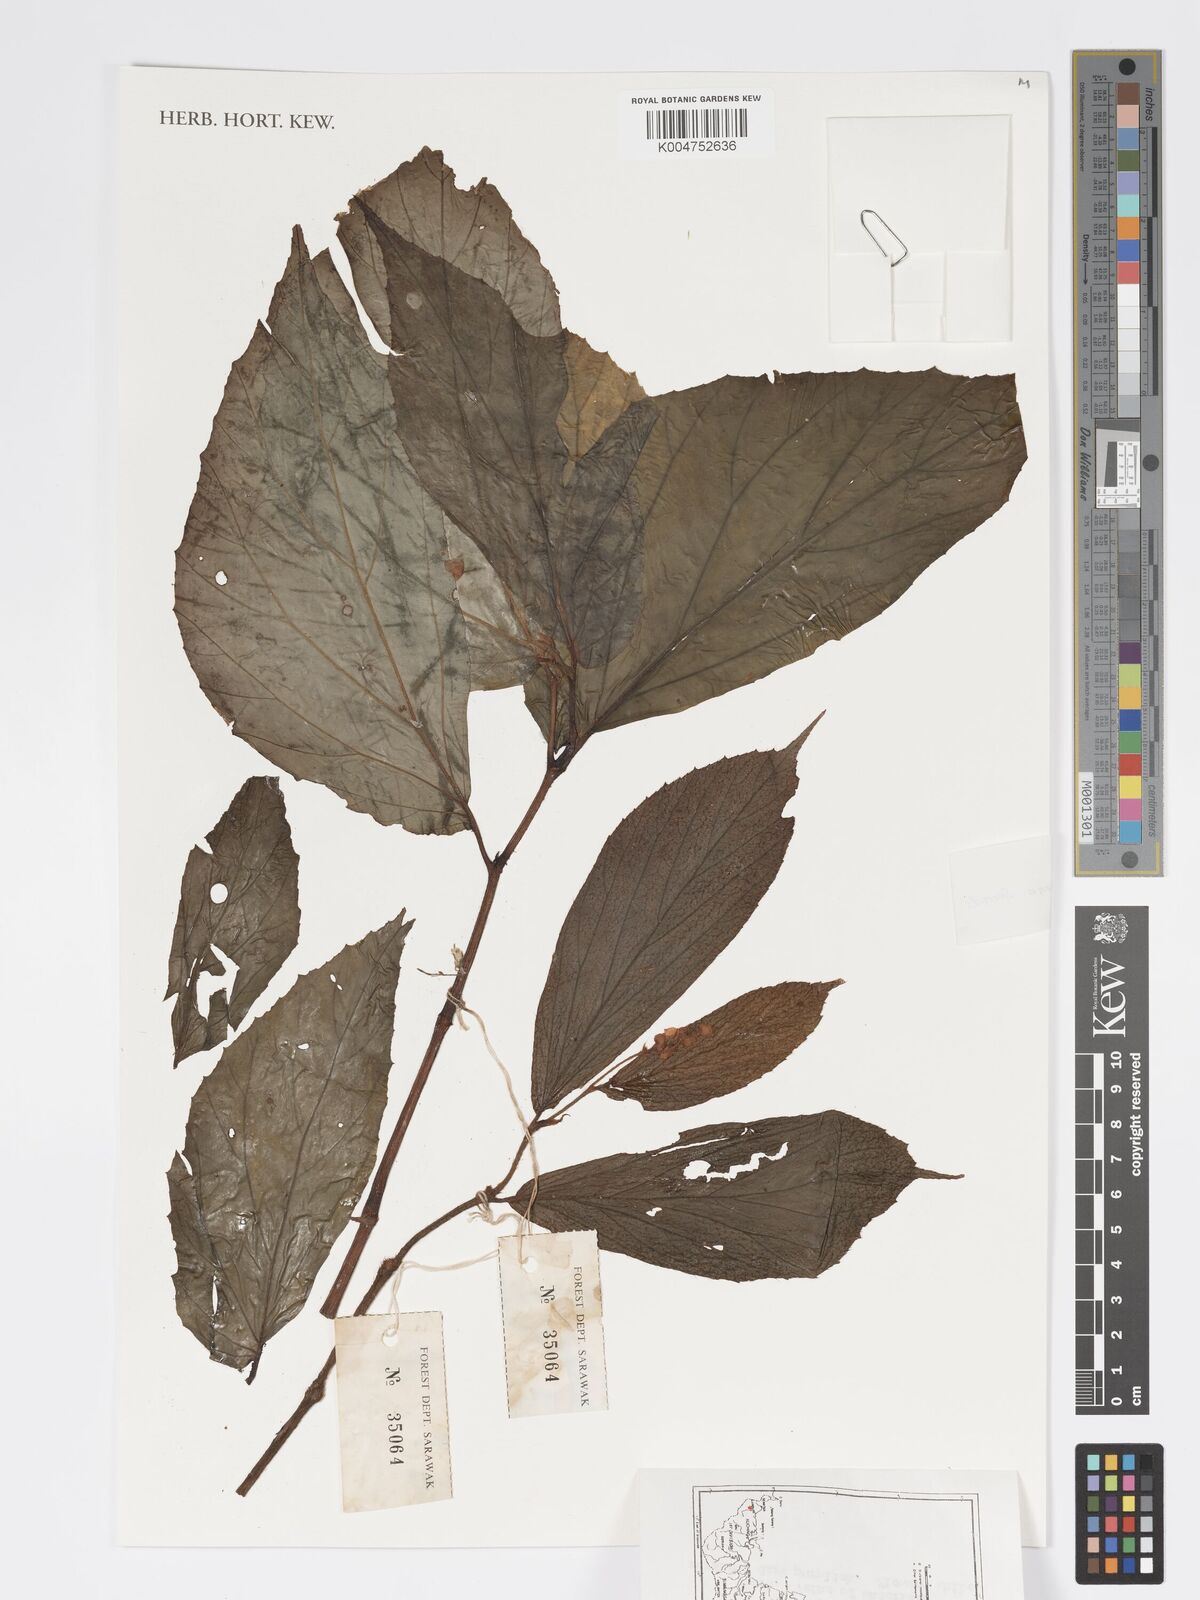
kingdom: Plantae
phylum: Tracheophyta
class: Magnoliopsida
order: Cucurbitales
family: Begoniaceae
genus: Begonia
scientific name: Begonia stenogyna
